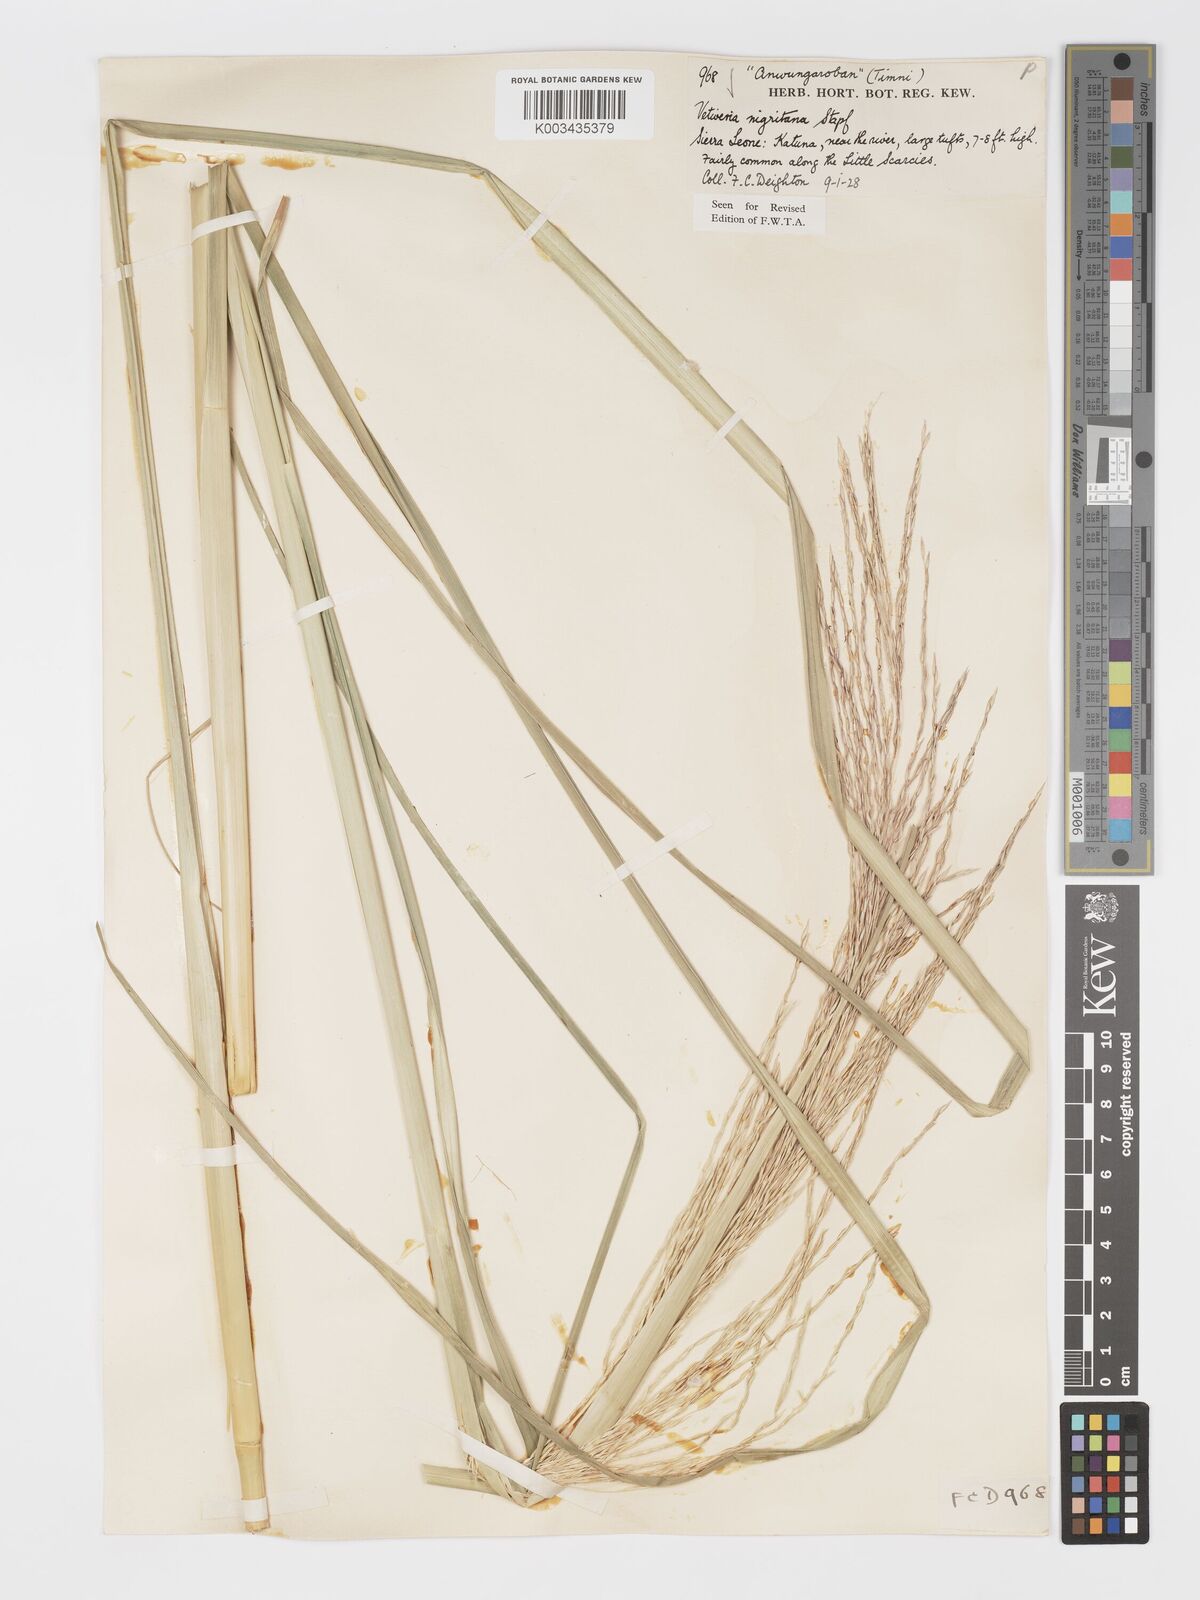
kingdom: Plantae
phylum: Tracheophyta
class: Liliopsida
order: Poales
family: Poaceae
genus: Chrysopogon
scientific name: Chrysopogon nigritanus
